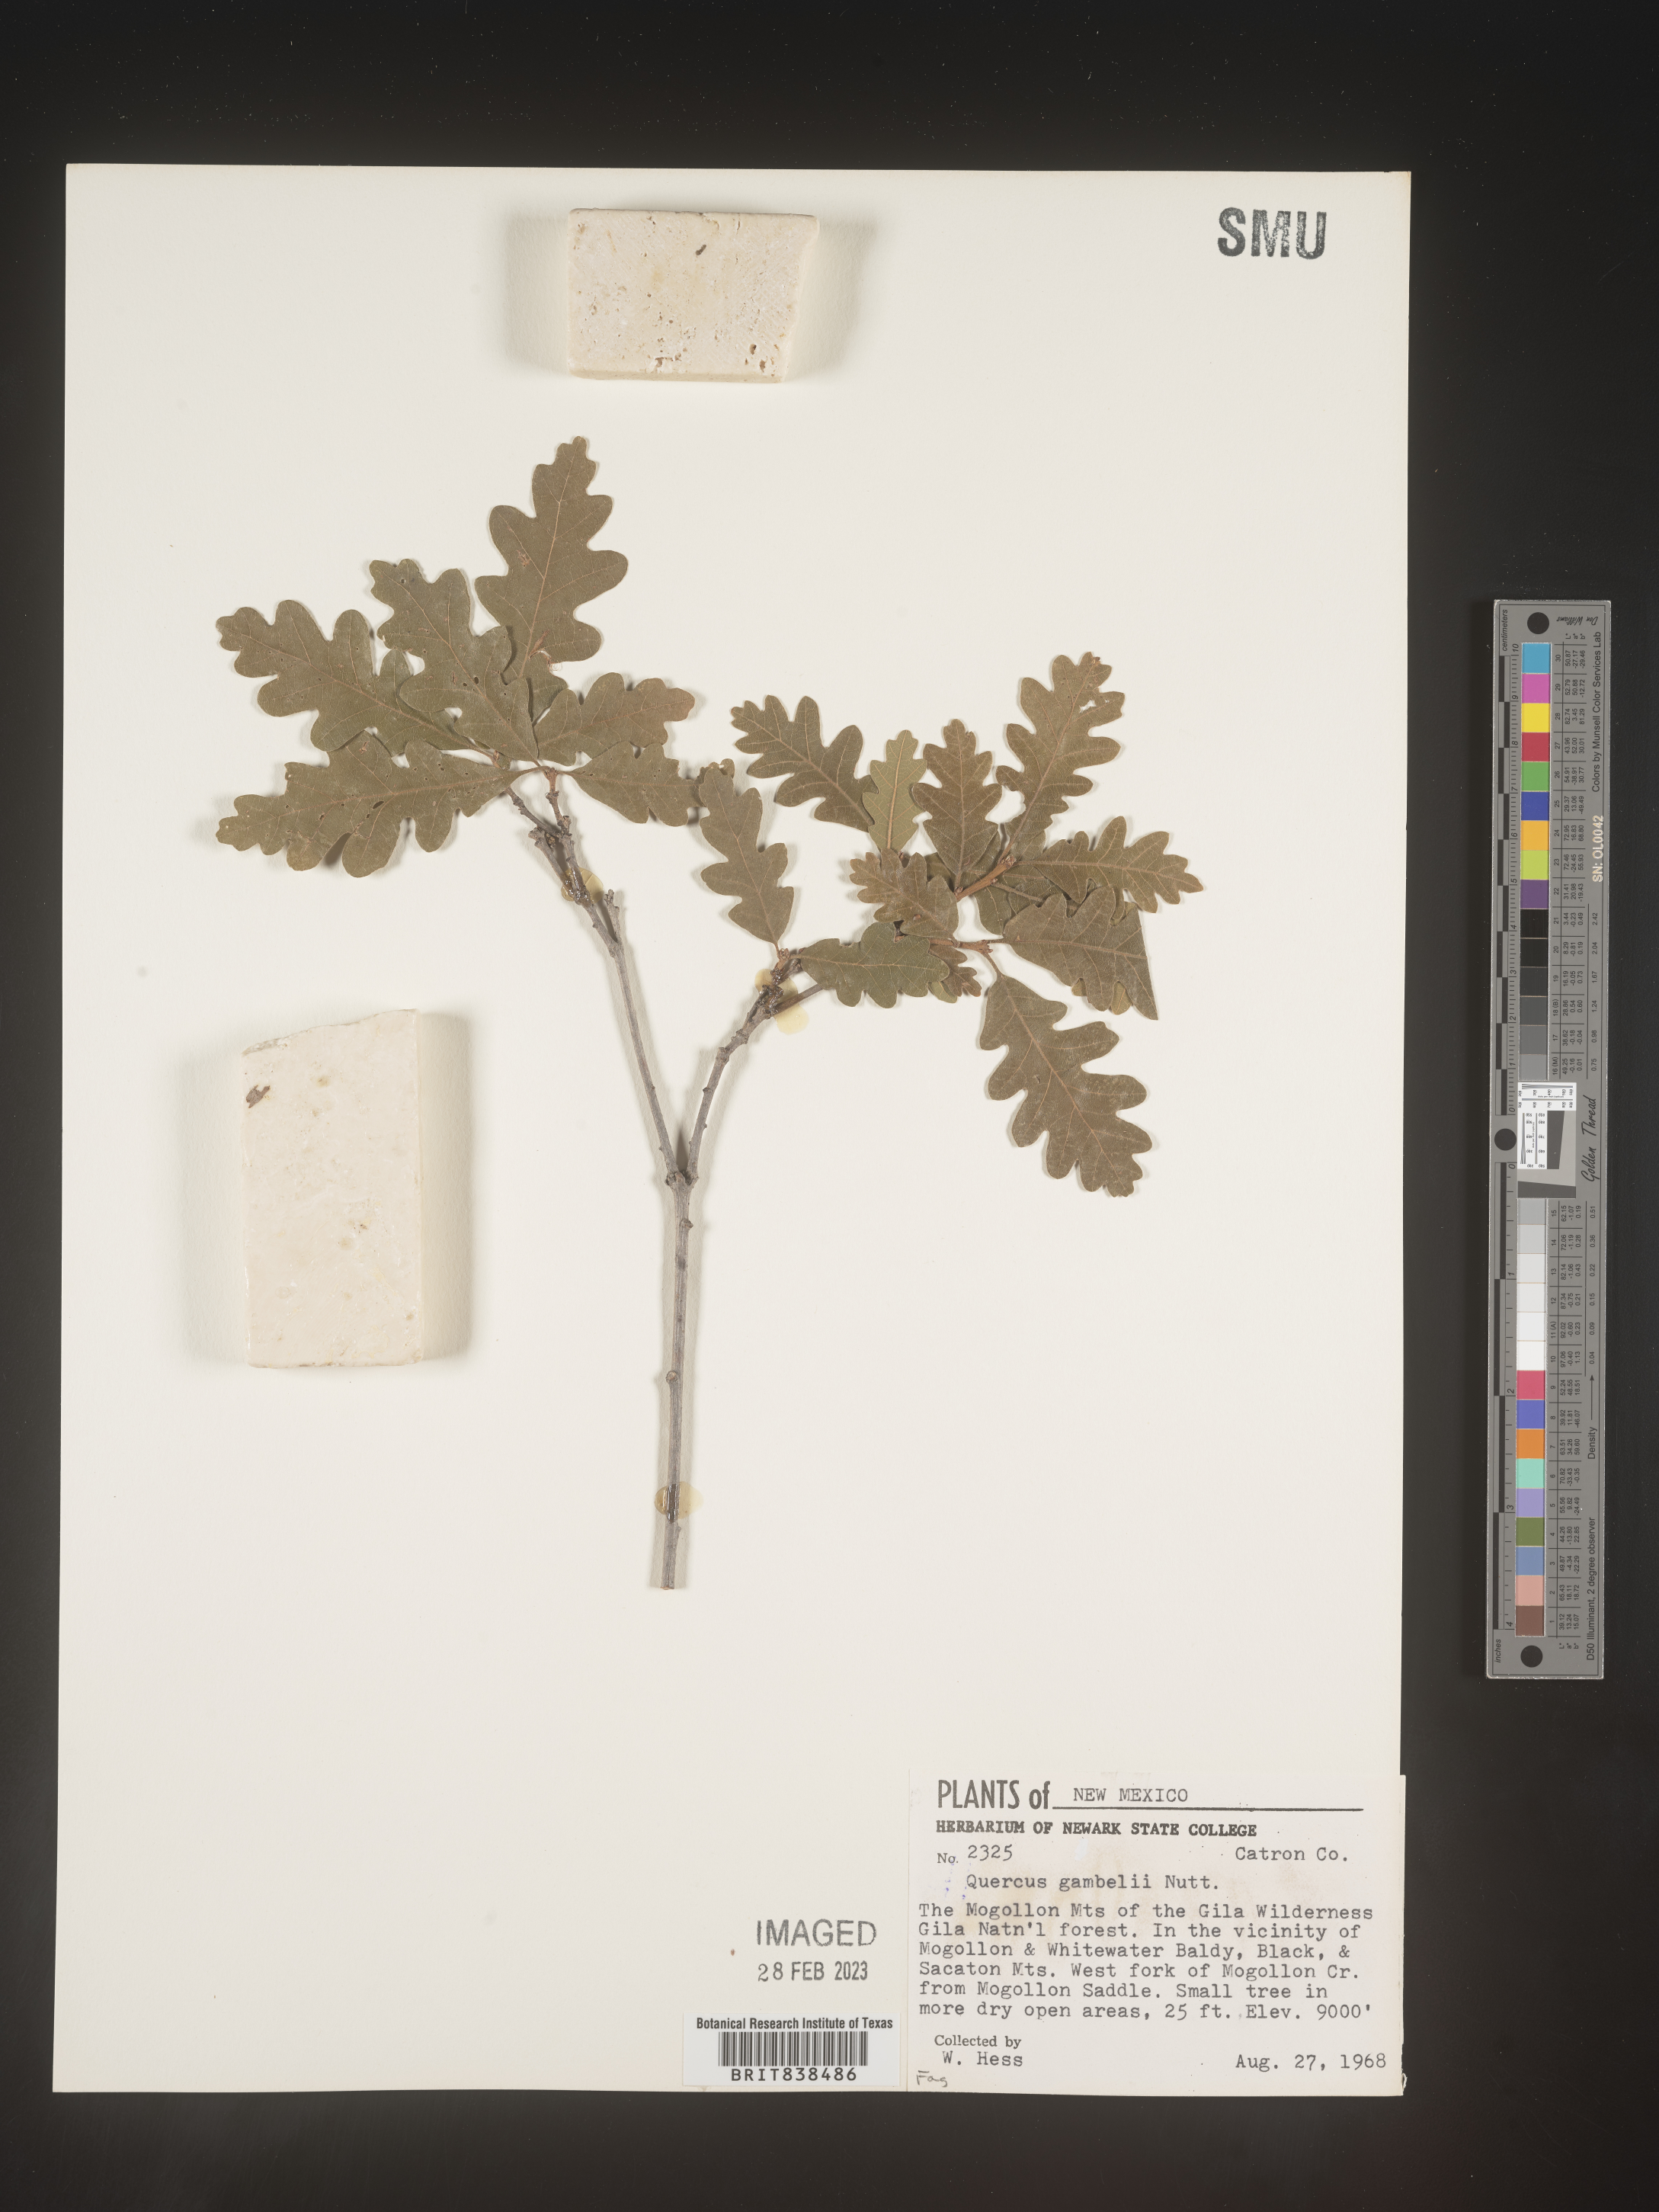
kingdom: Plantae
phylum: Tracheophyta
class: Magnoliopsida
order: Fagales
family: Fagaceae
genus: Quercus
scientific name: Quercus gambelii
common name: Gambel oak
